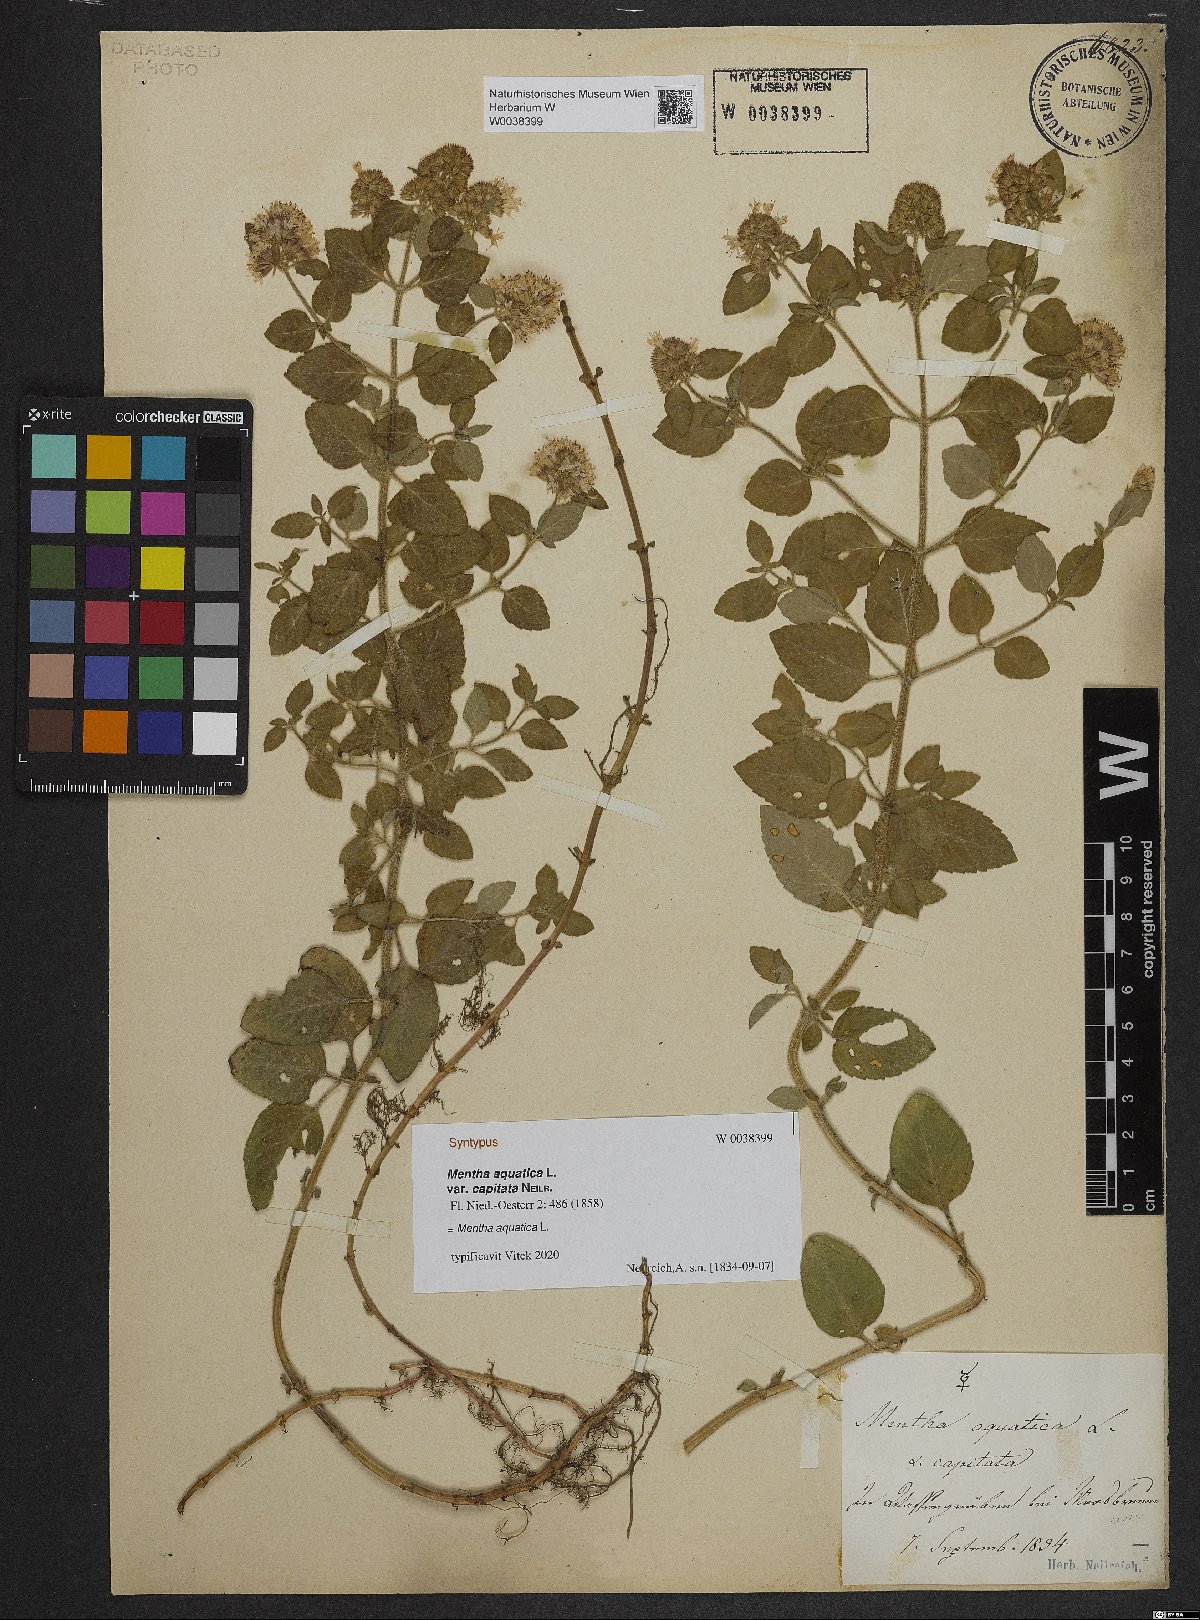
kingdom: Plantae
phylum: Tracheophyta
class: Magnoliopsida
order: Lamiales
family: Lamiaceae
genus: Mentha
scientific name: Mentha aquatica
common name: Water mint
